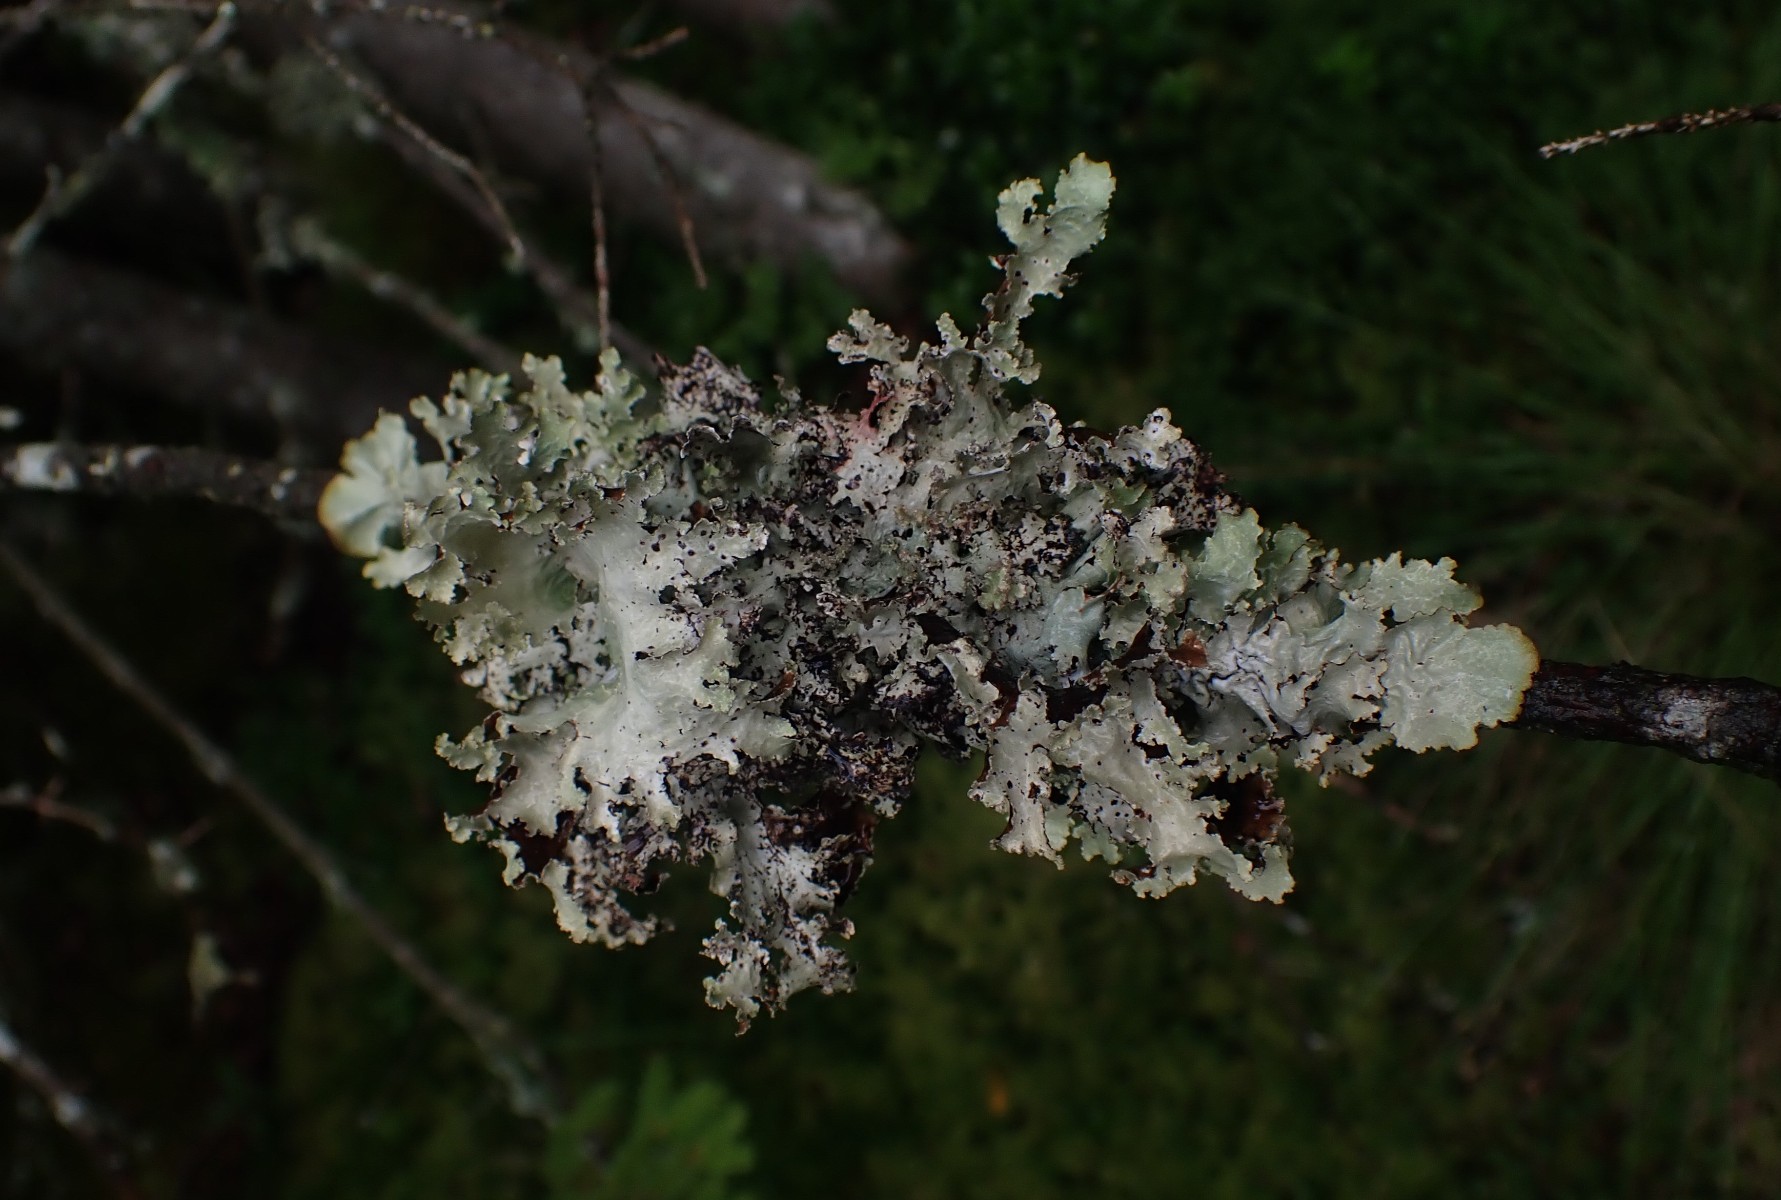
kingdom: Fungi
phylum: Ascomycota
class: Lecanoromycetes
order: Lecanorales
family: Parmeliaceae
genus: Platismatia
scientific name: Platismatia glauca
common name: blågrå papirlav
